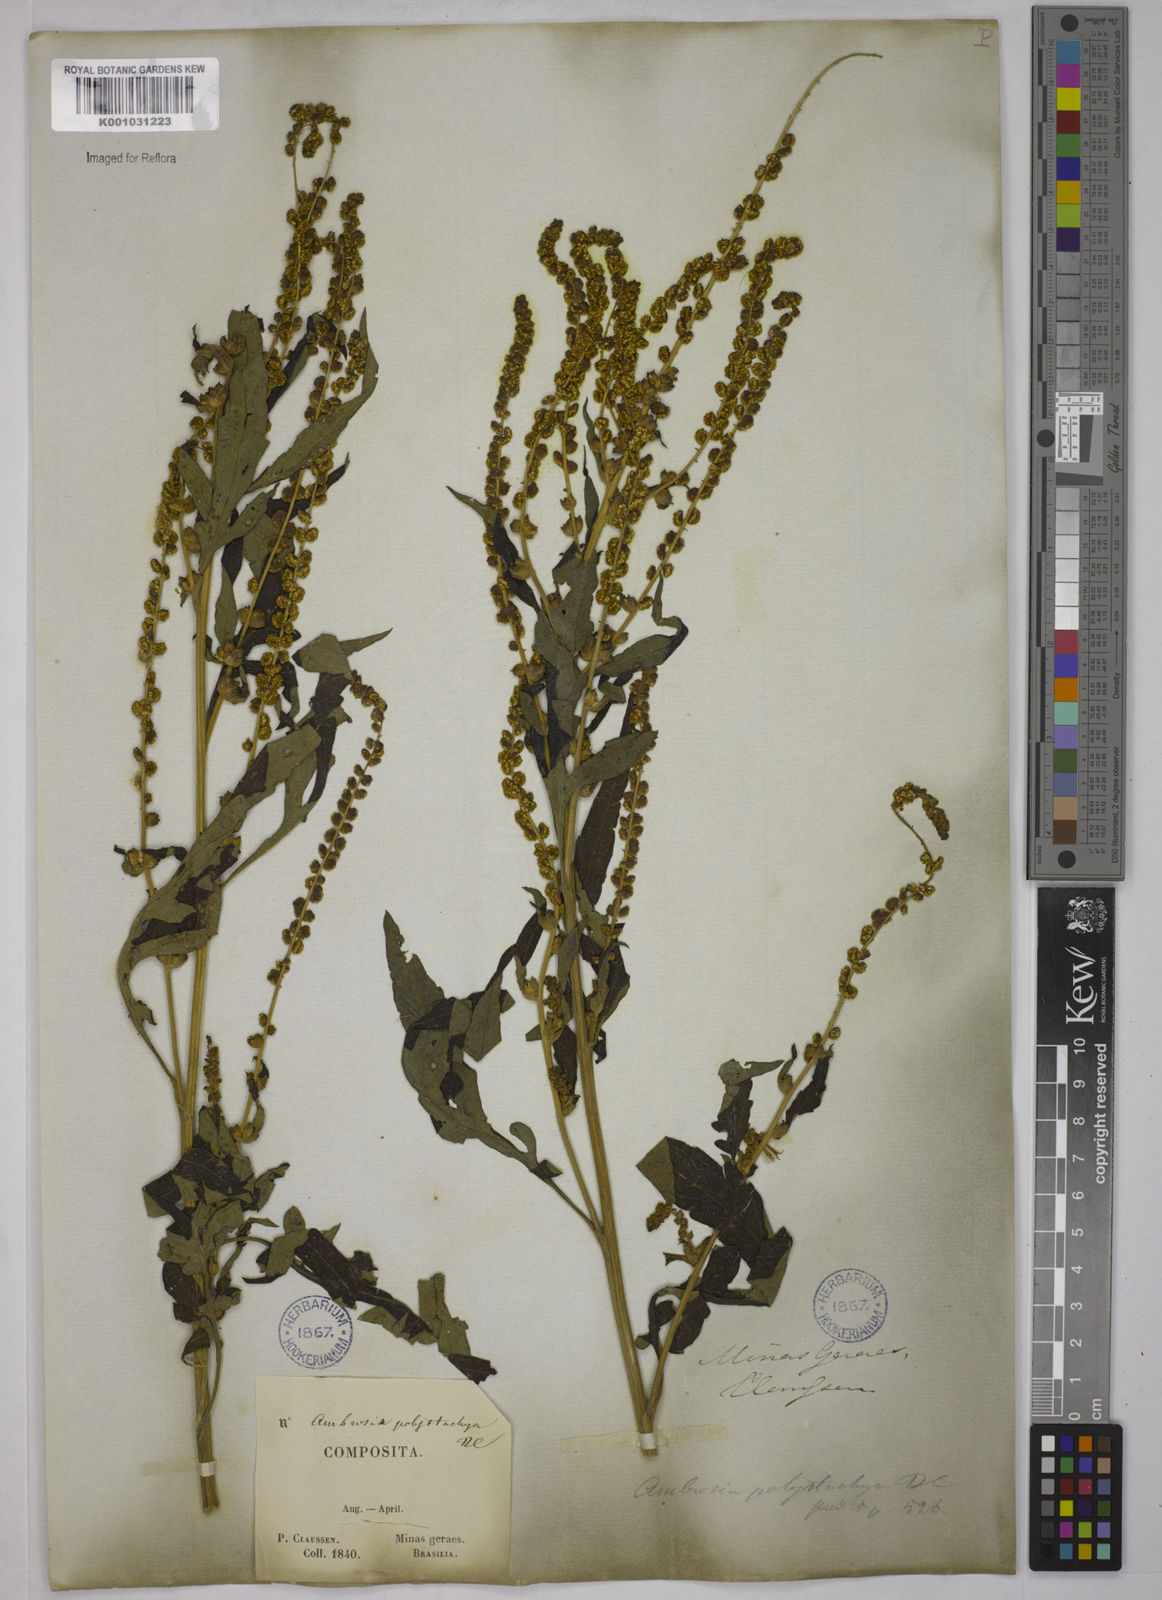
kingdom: Plantae
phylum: Tracheophyta
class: Magnoliopsida
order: Asterales
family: Asteraceae
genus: Ambrosia
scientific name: Ambrosia polystachya
